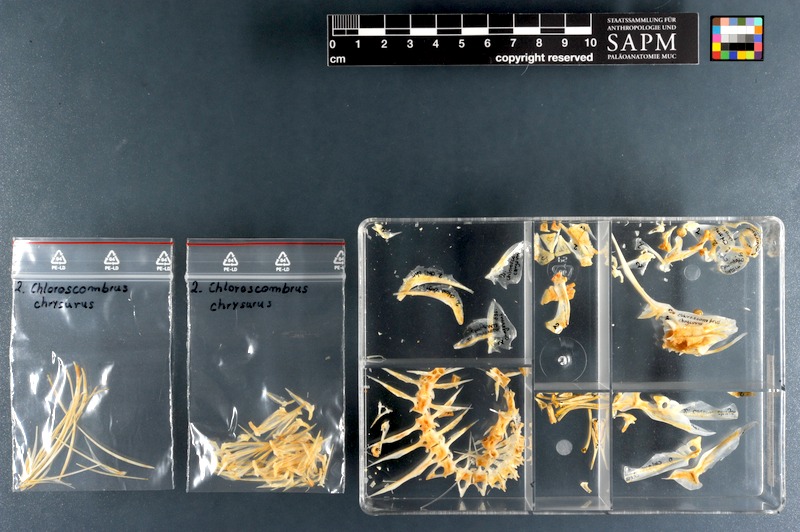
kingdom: Animalia
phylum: Chordata
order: Perciformes
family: Carangidae
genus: Chloroscombrus
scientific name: Chloroscombrus chrysurus
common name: Bumper
